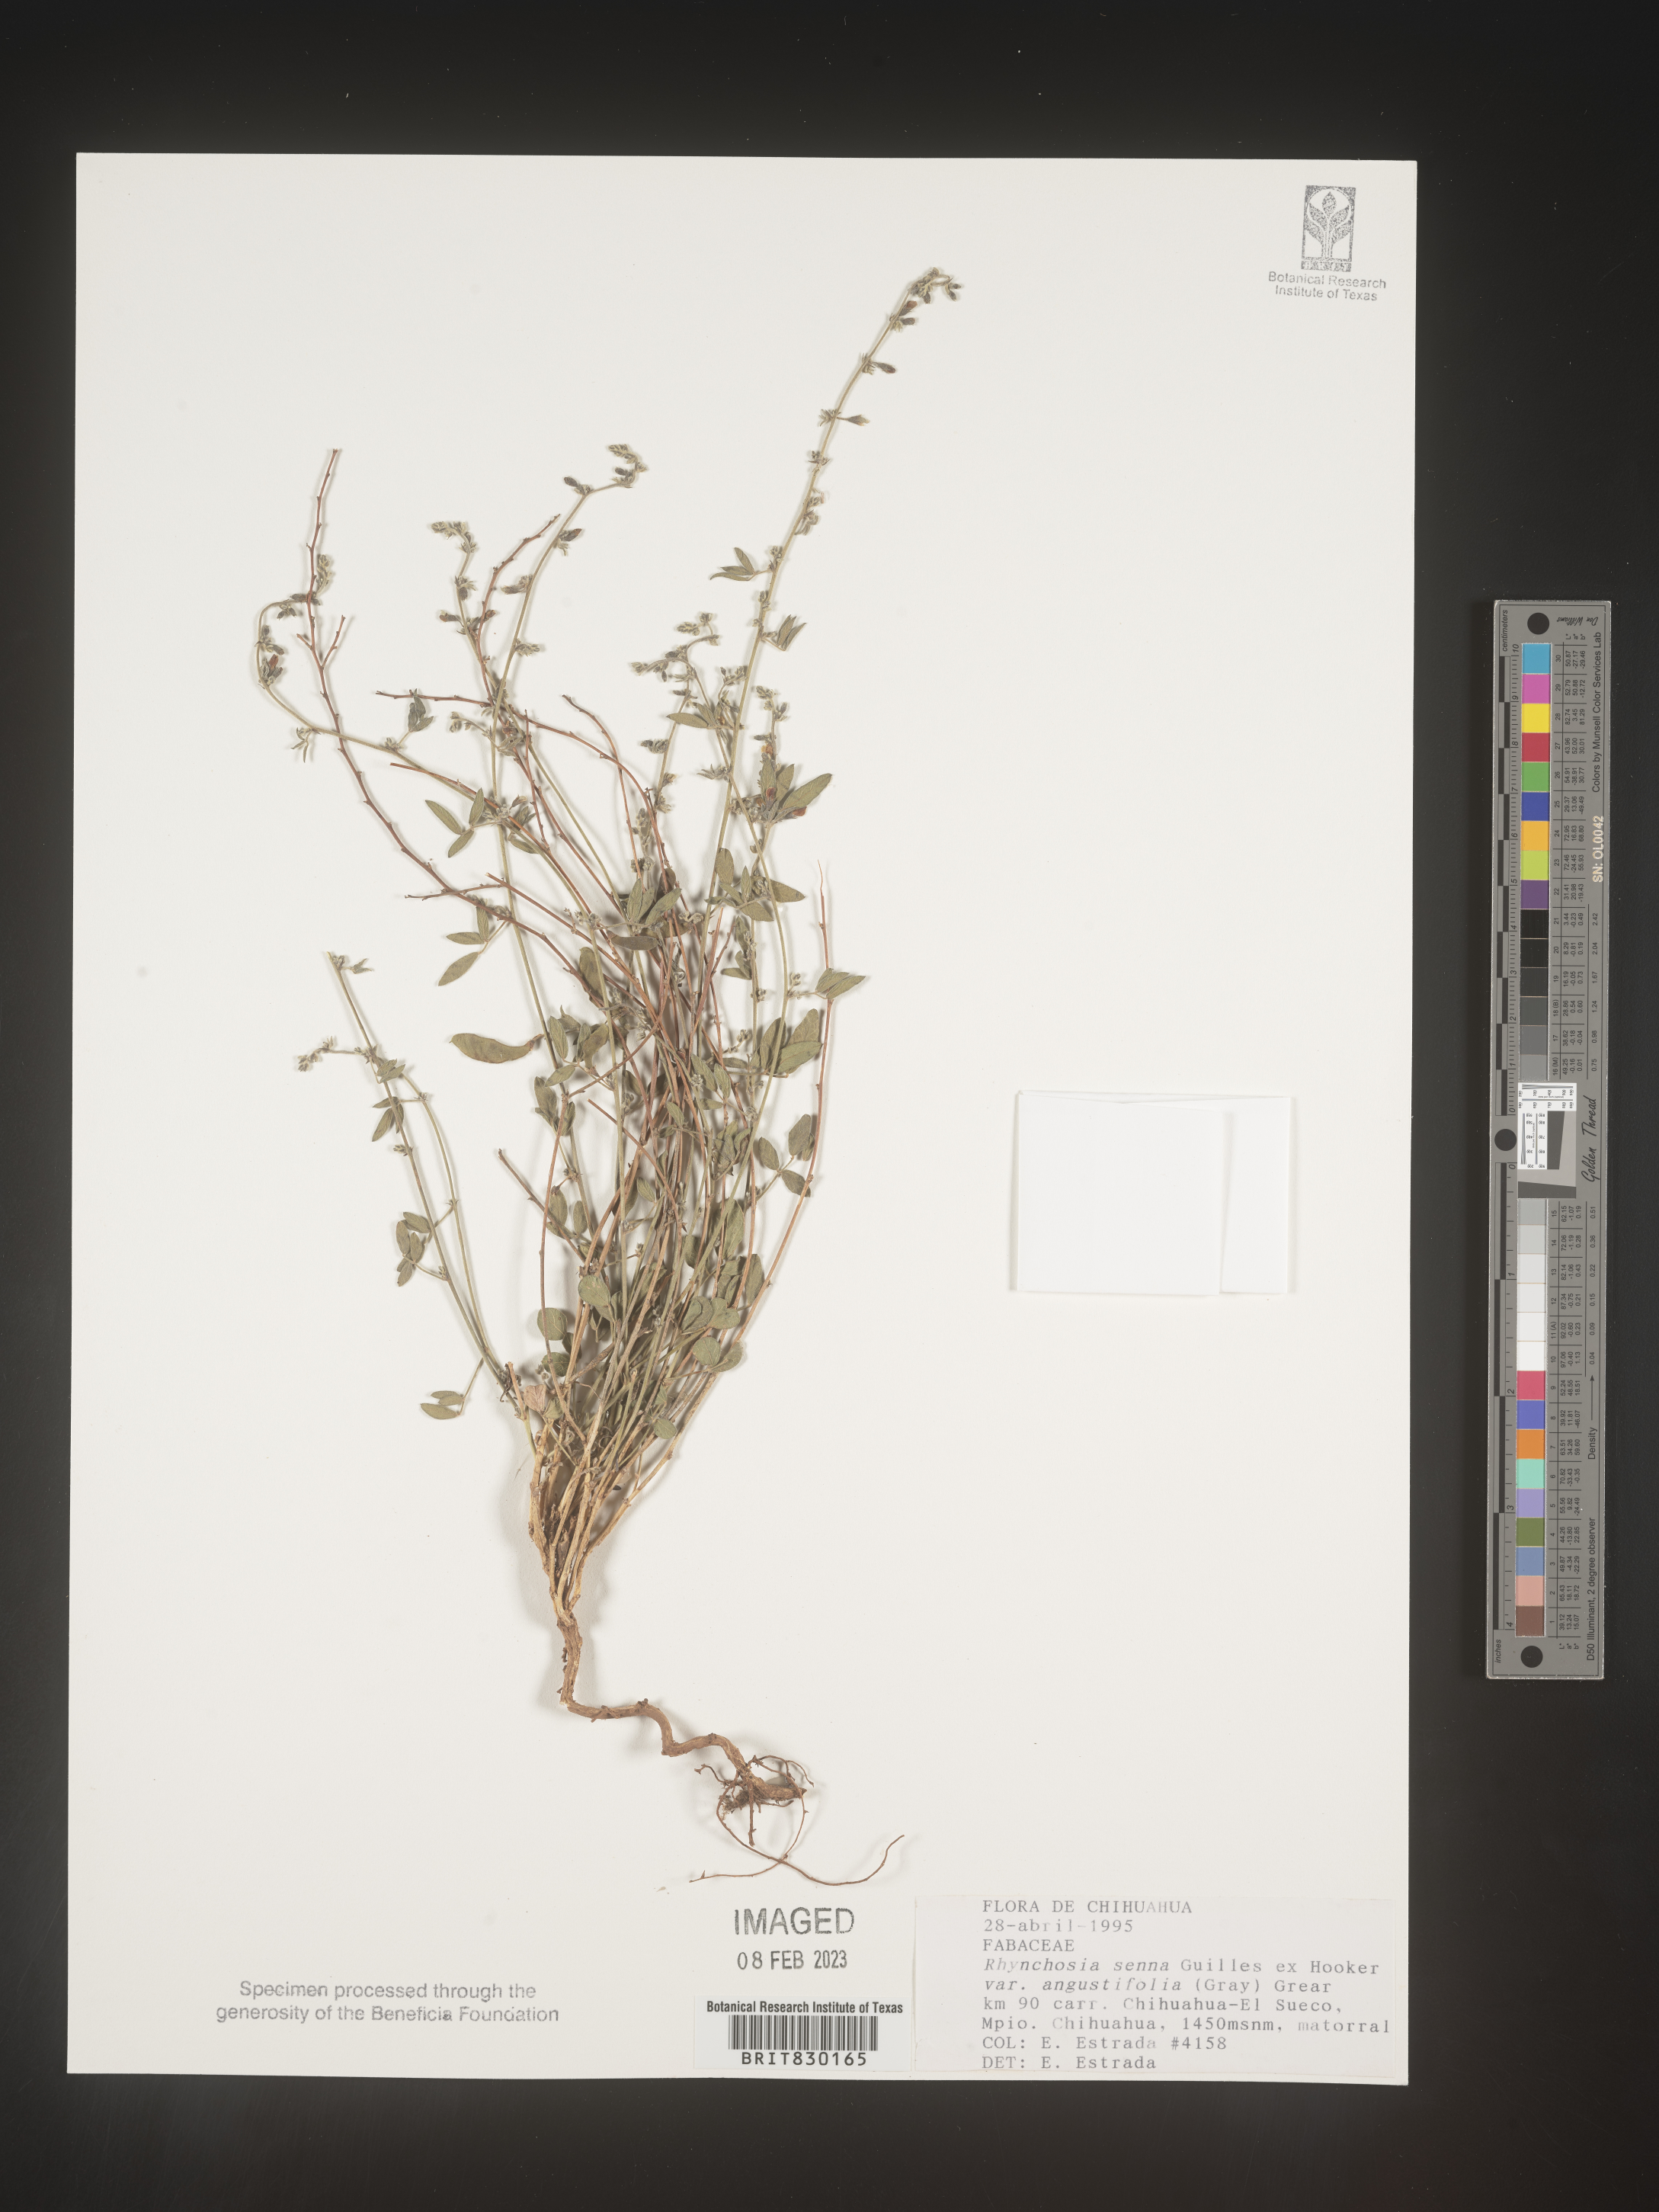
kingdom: Plantae
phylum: Tracheophyta
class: Magnoliopsida
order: Fabales
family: Fabaceae
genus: Rhynchosia
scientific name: Rhynchosia
